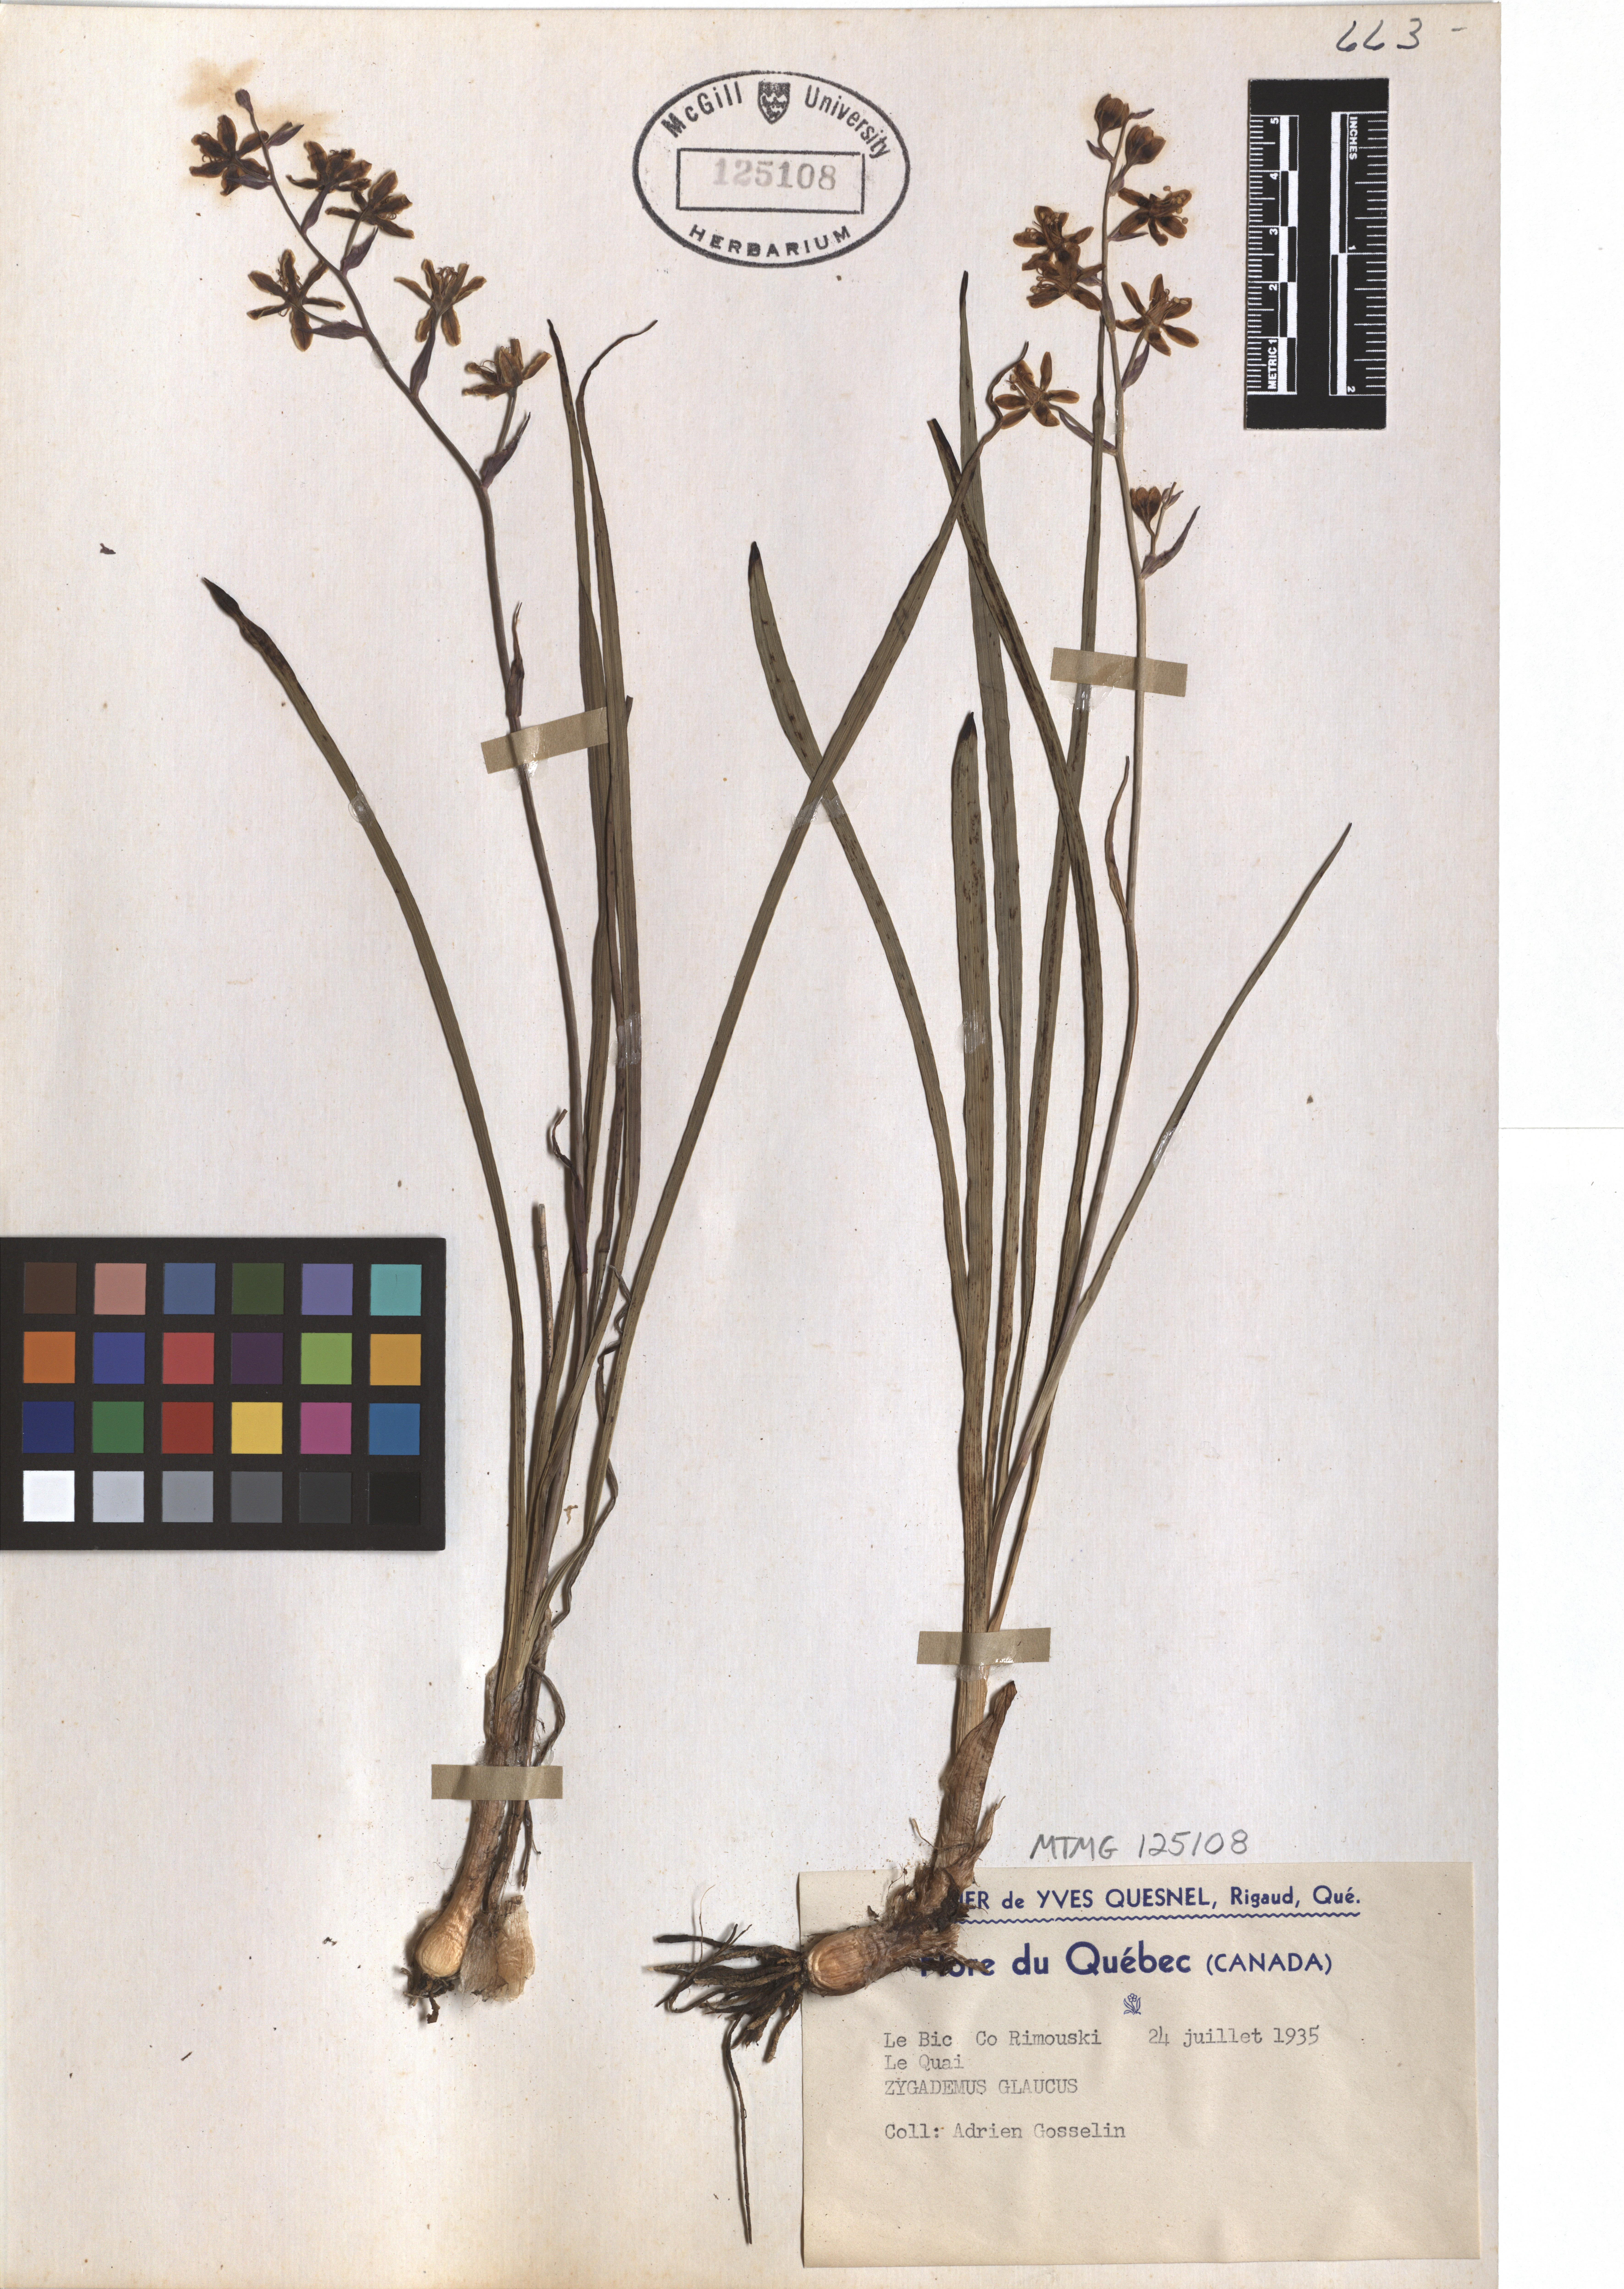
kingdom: Plantae
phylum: Tracheophyta
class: Liliopsida
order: Liliales
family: Melanthiaceae
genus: Anticlea
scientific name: Anticlea elegans
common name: Mountain death camas
